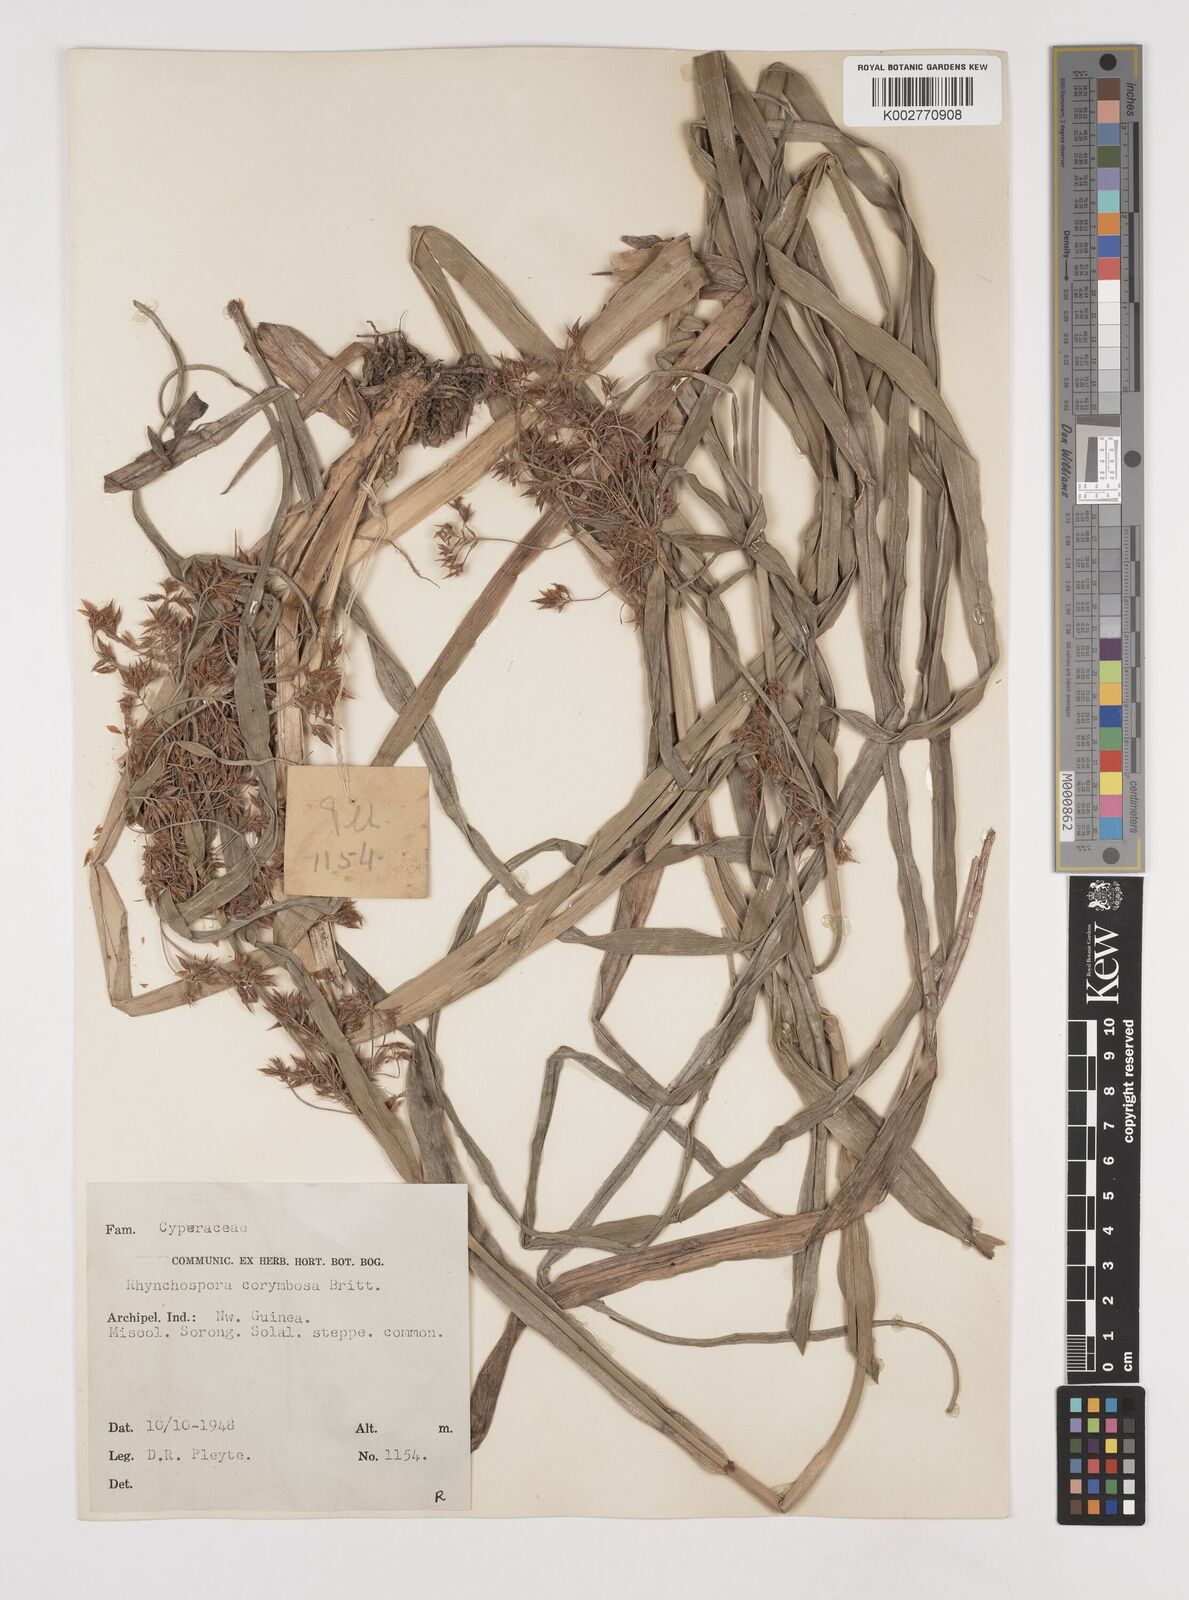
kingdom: Plantae
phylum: Tracheophyta
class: Liliopsida
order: Poales
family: Cyperaceae
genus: Rhynchospora
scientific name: Rhynchospora corymbosa
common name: Golden beak sedge
